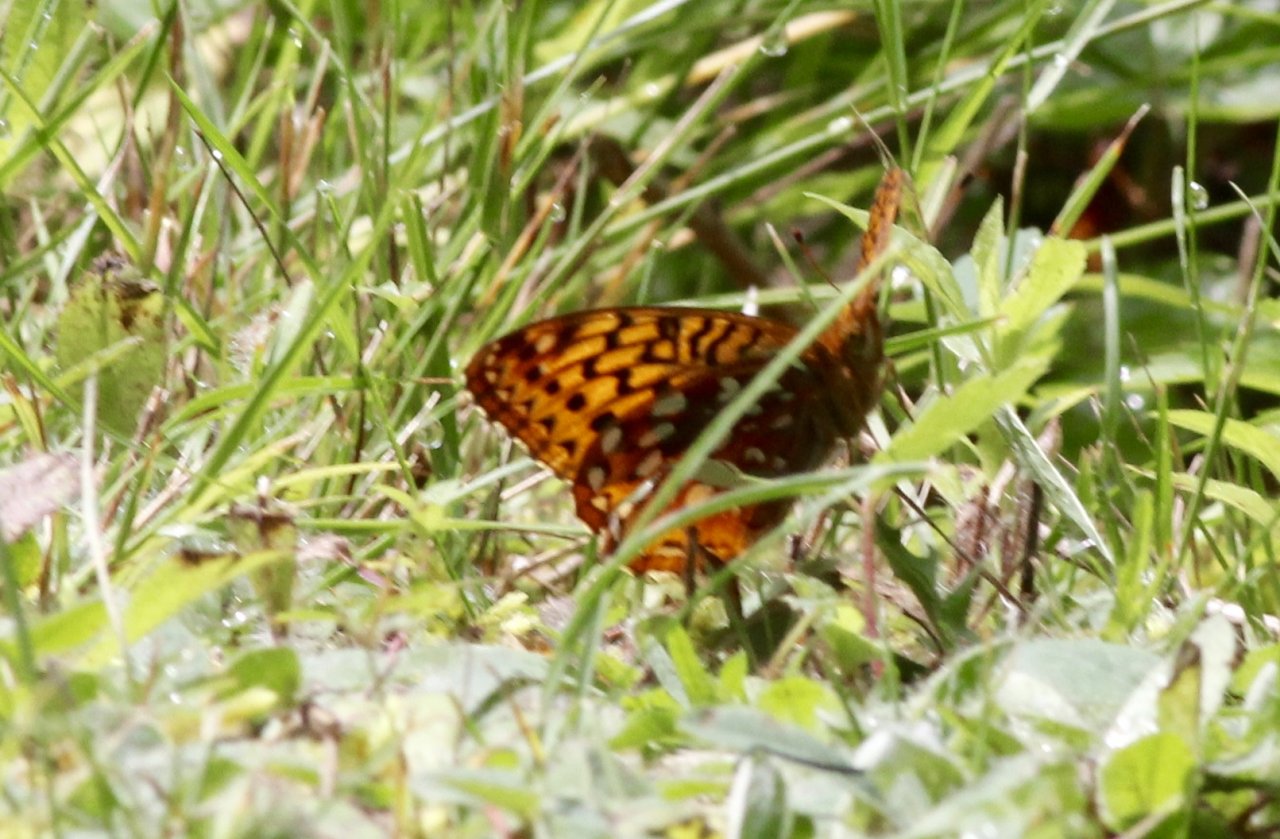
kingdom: Animalia
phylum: Arthropoda
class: Insecta
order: Lepidoptera
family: Nymphalidae
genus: Speyeria
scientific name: Speyeria cybele
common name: Great Spangled Fritillary
